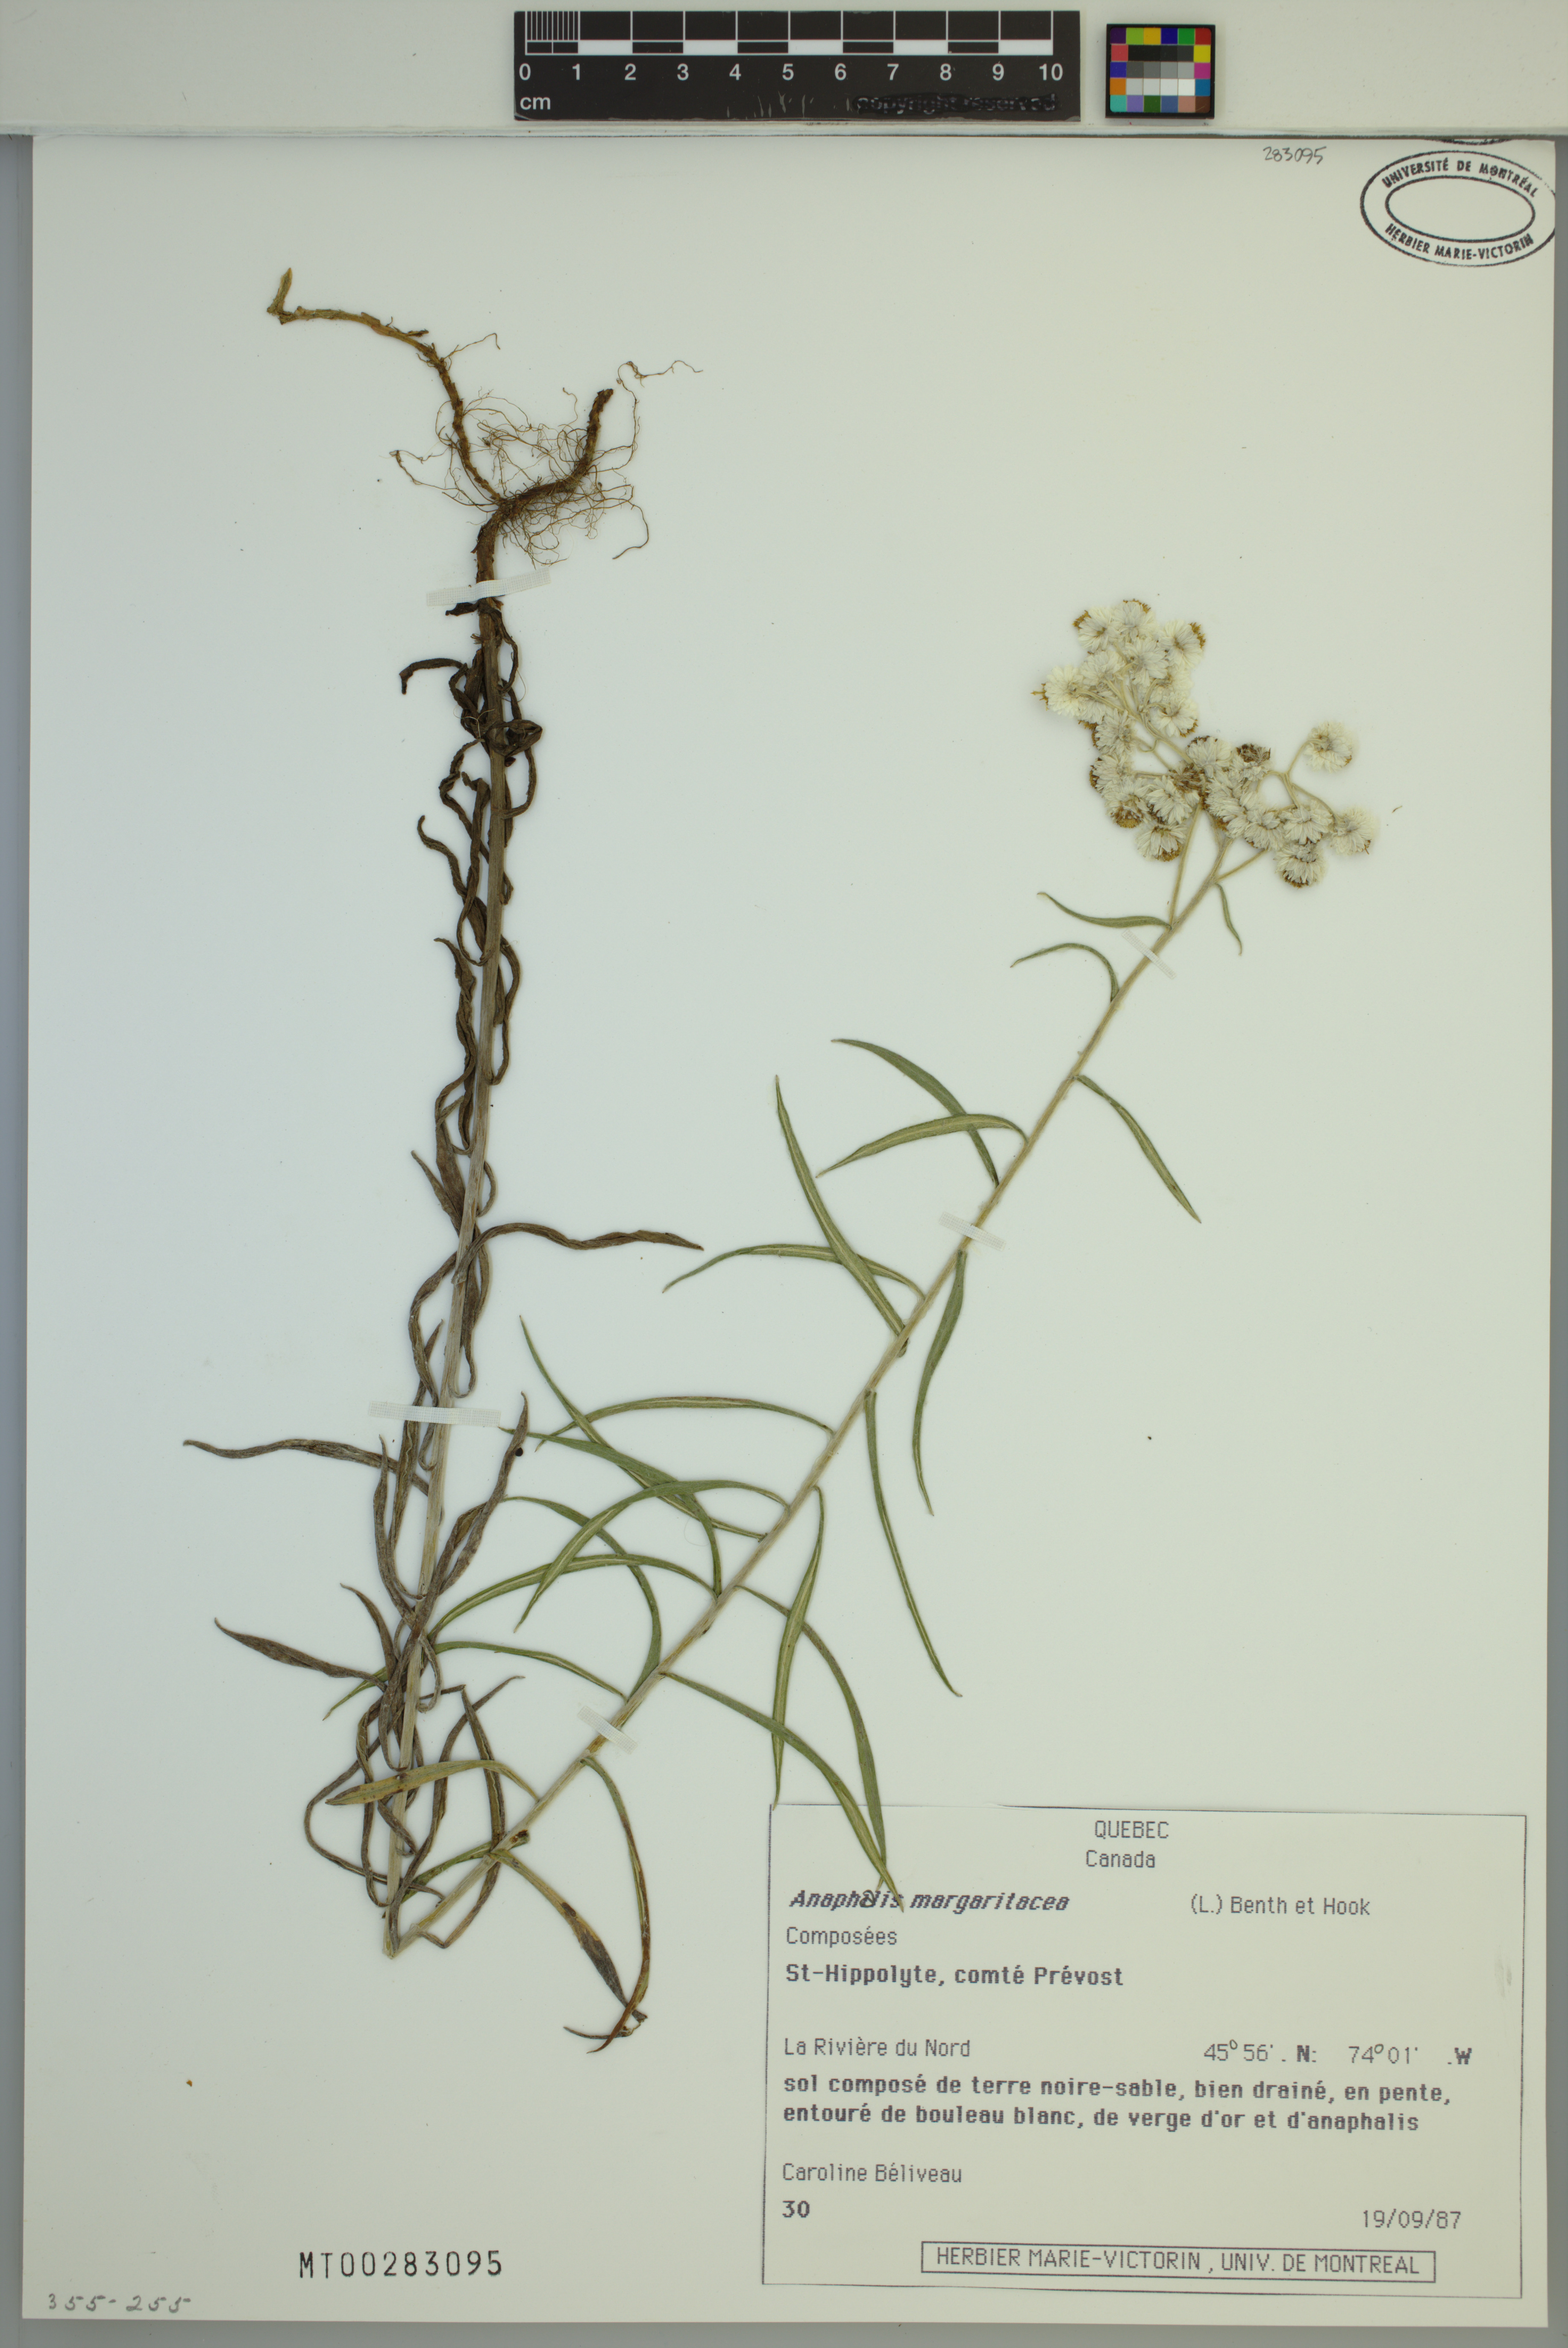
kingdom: Plantae
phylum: Tracheophyta
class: Magnoliopsida
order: Asterales
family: Asteraceae
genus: Anaphalis
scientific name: Anaphalis margaritacea
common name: Pearly everlasting
